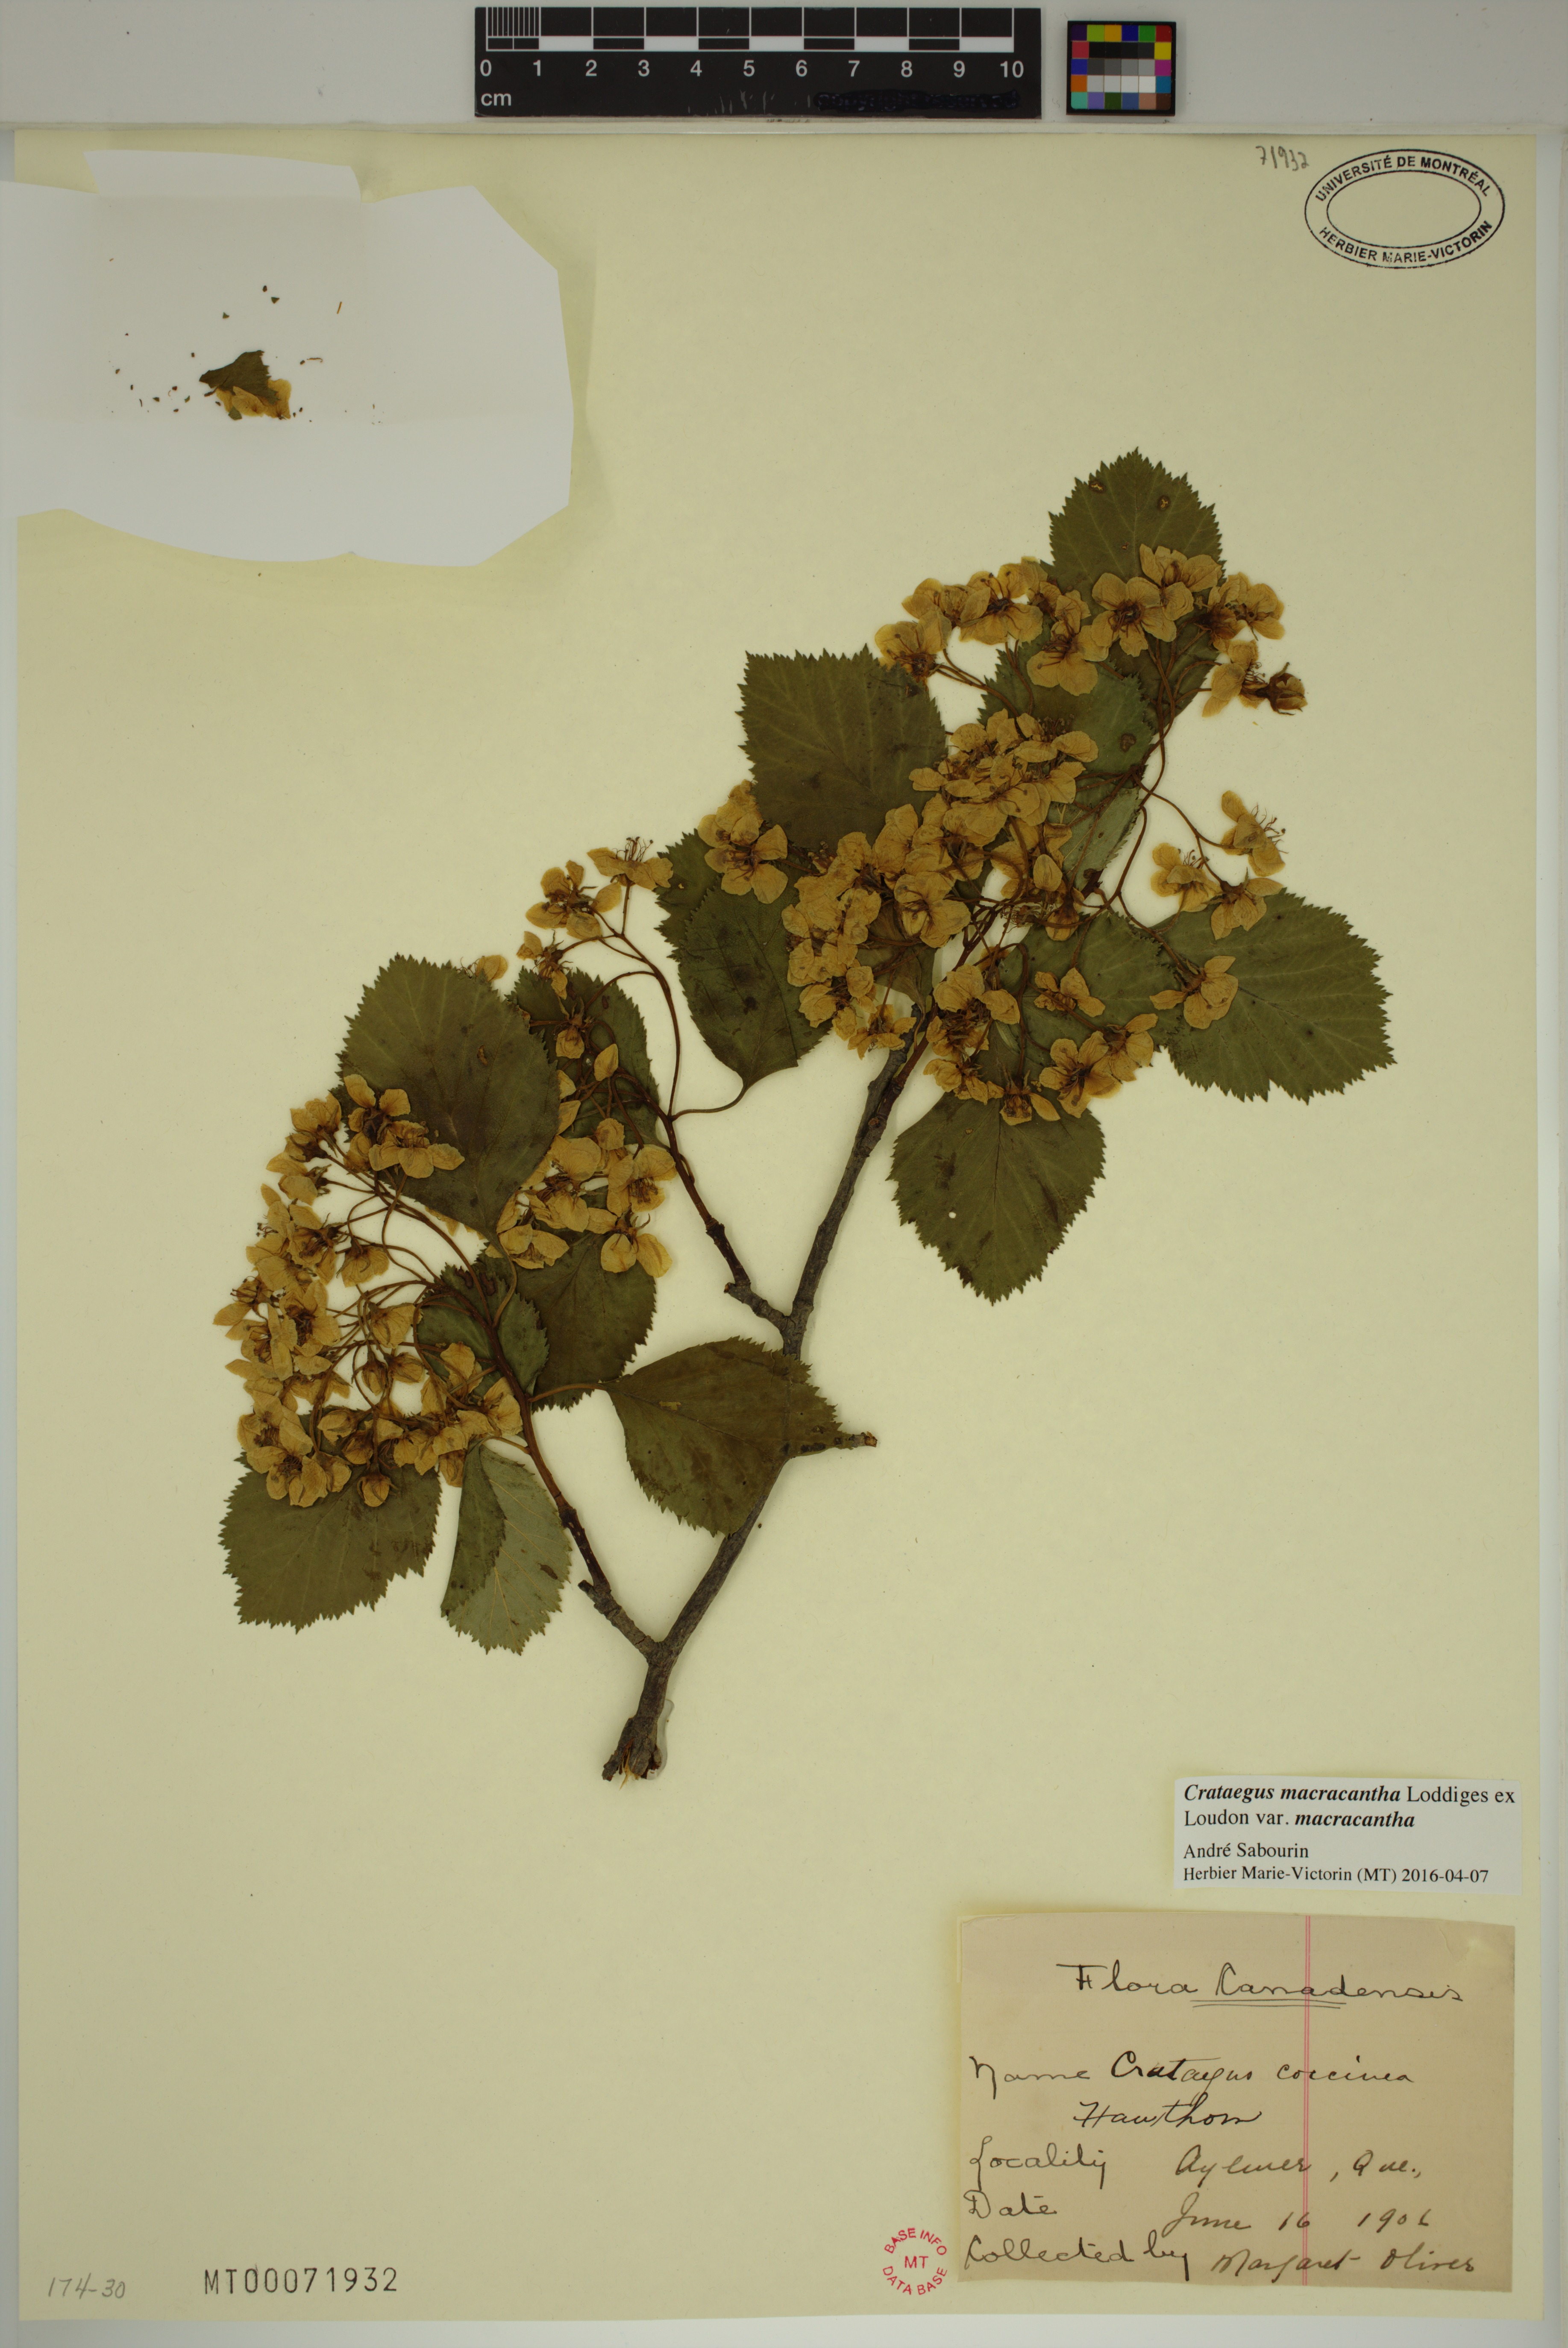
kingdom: Plantae
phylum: Tracheophyta
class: Magnoliopsida
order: Rosales
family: Rosaceae
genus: Crataegus
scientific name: Crataegus macracantha
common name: Large-thorn hawthorn
